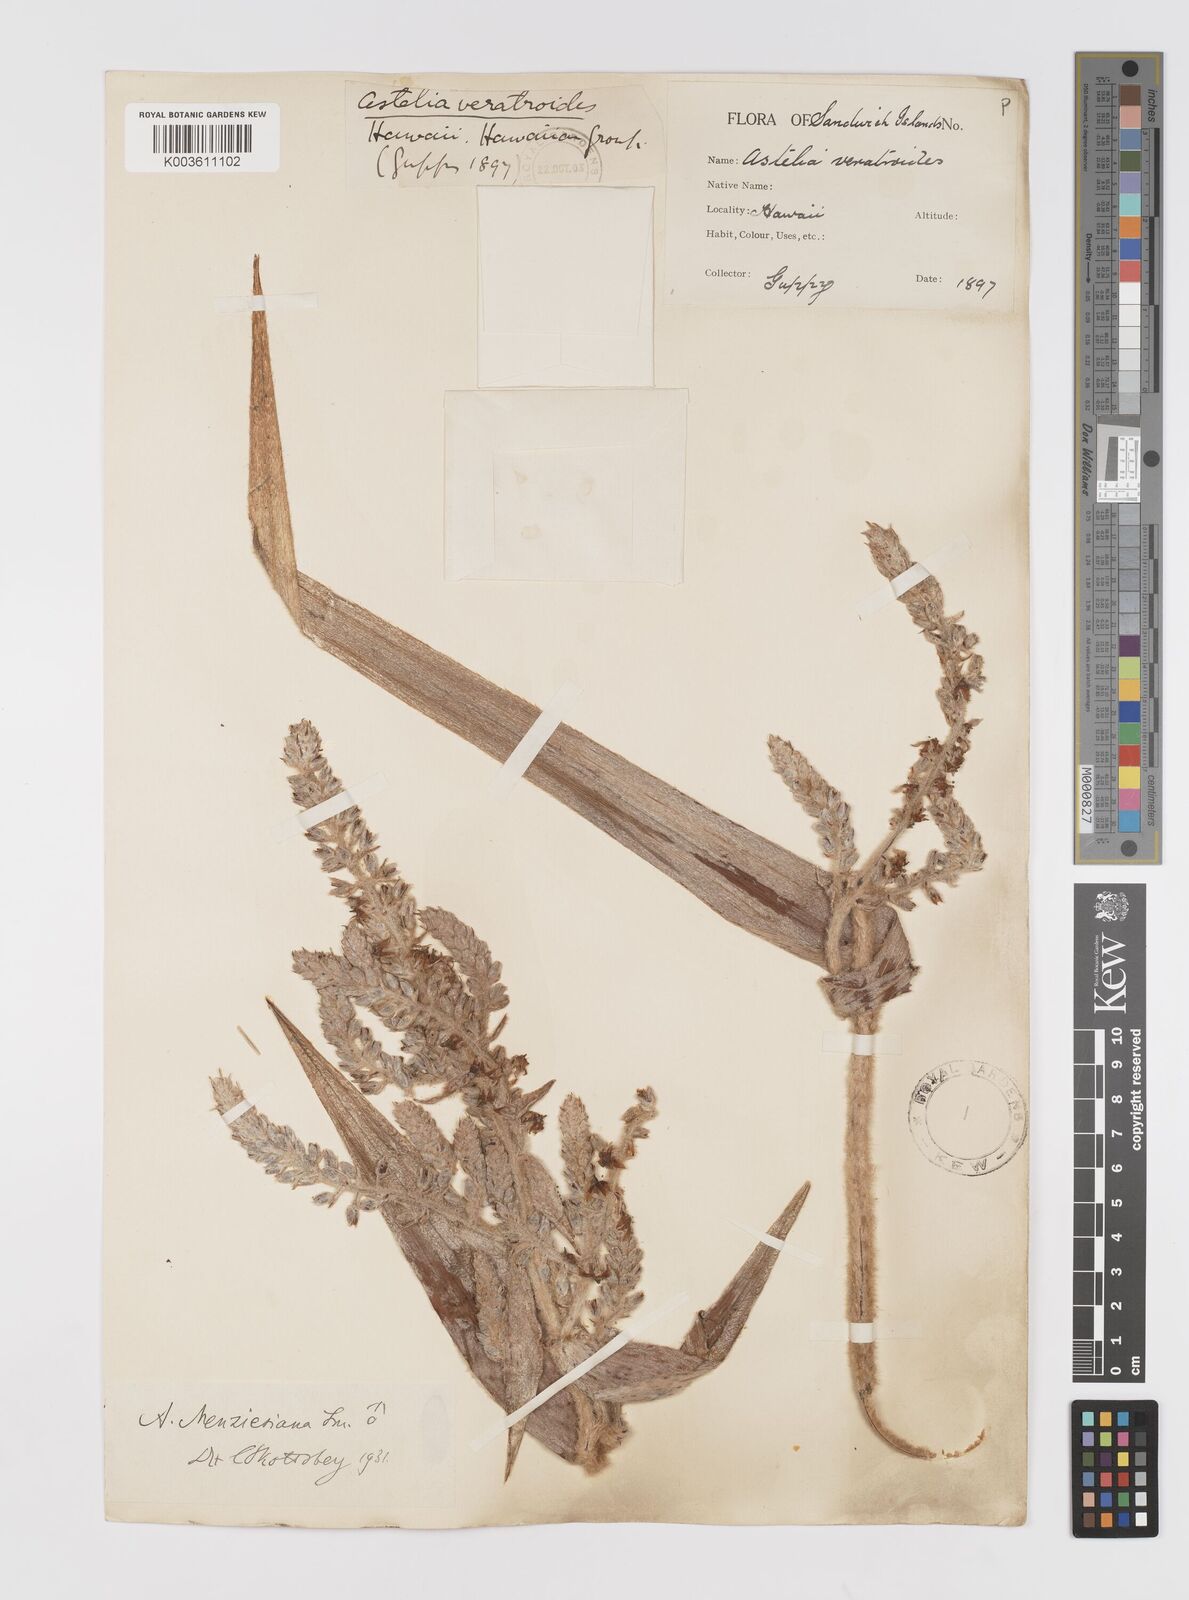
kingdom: Plantae
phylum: Tracheophyta
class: Liliopsida
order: Asparagales
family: Asteliaceae
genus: Astelia
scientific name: Astelia menziesiana
